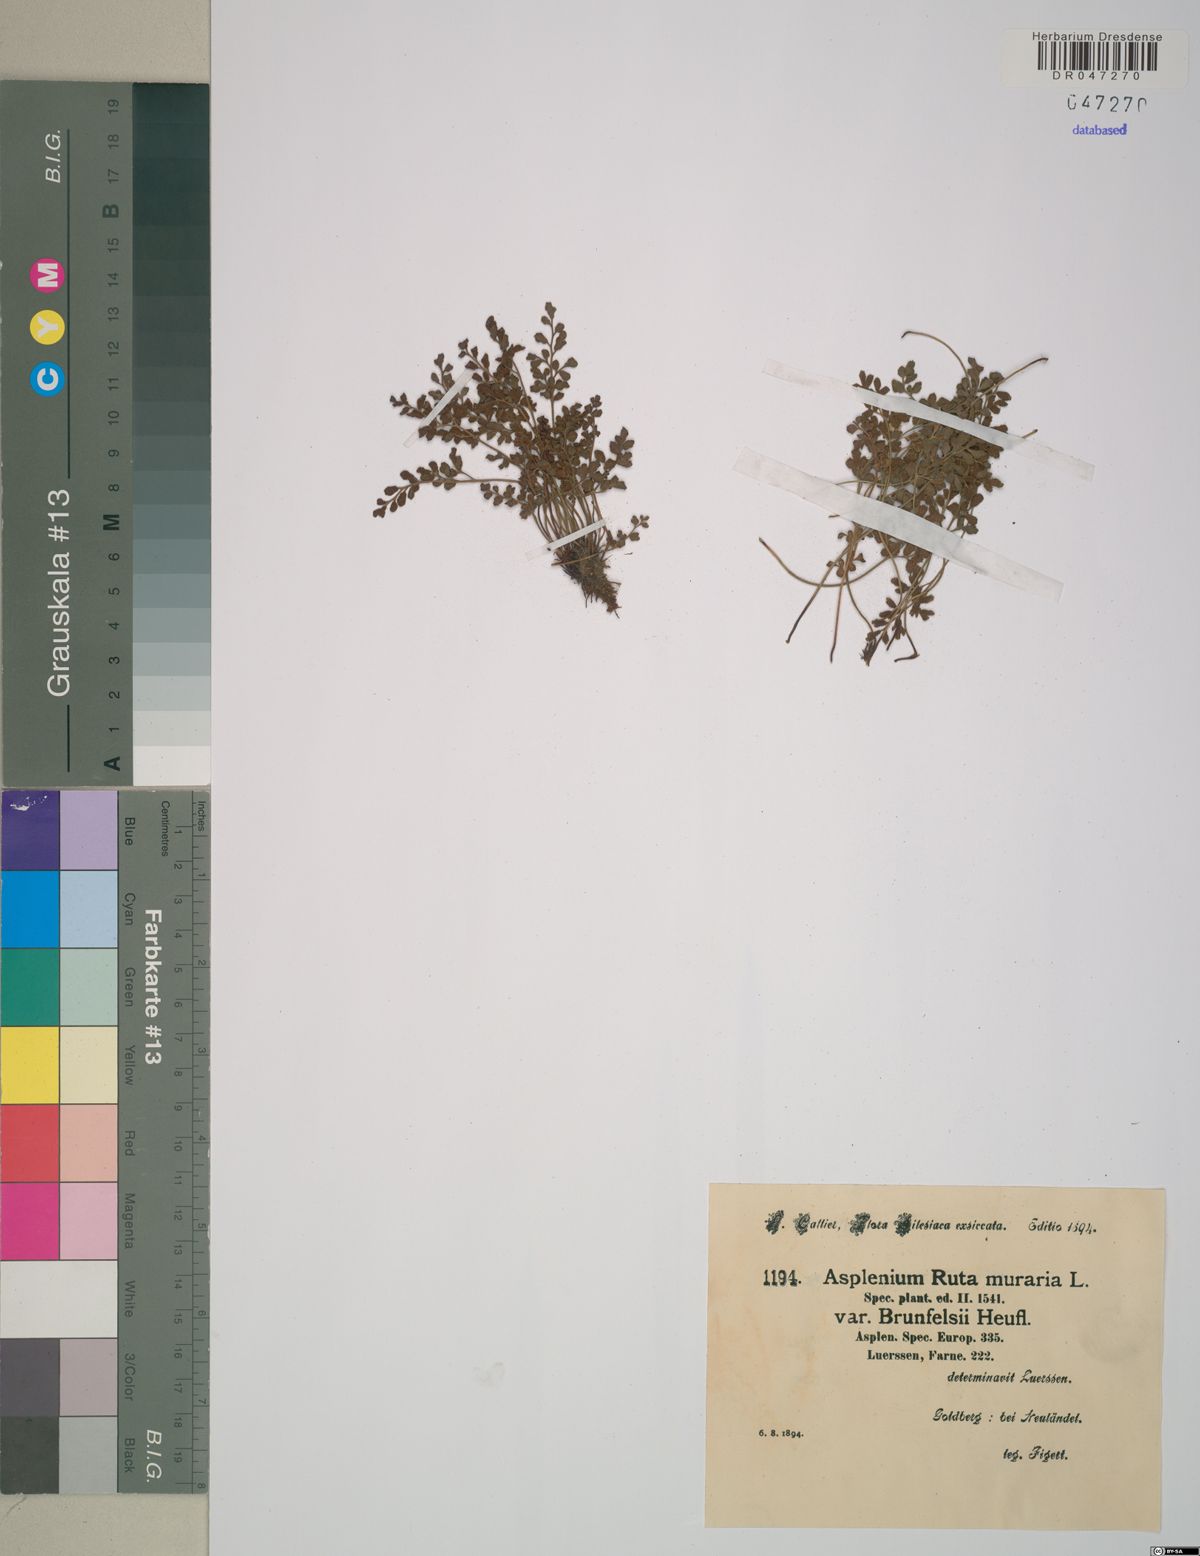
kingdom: Plantae
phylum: Tracheophyta
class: Polypodiopsida
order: Polypodiales
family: Aspleniaceae
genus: Asplenium
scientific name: Asplenium ruta-muraria
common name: Wall-rue
